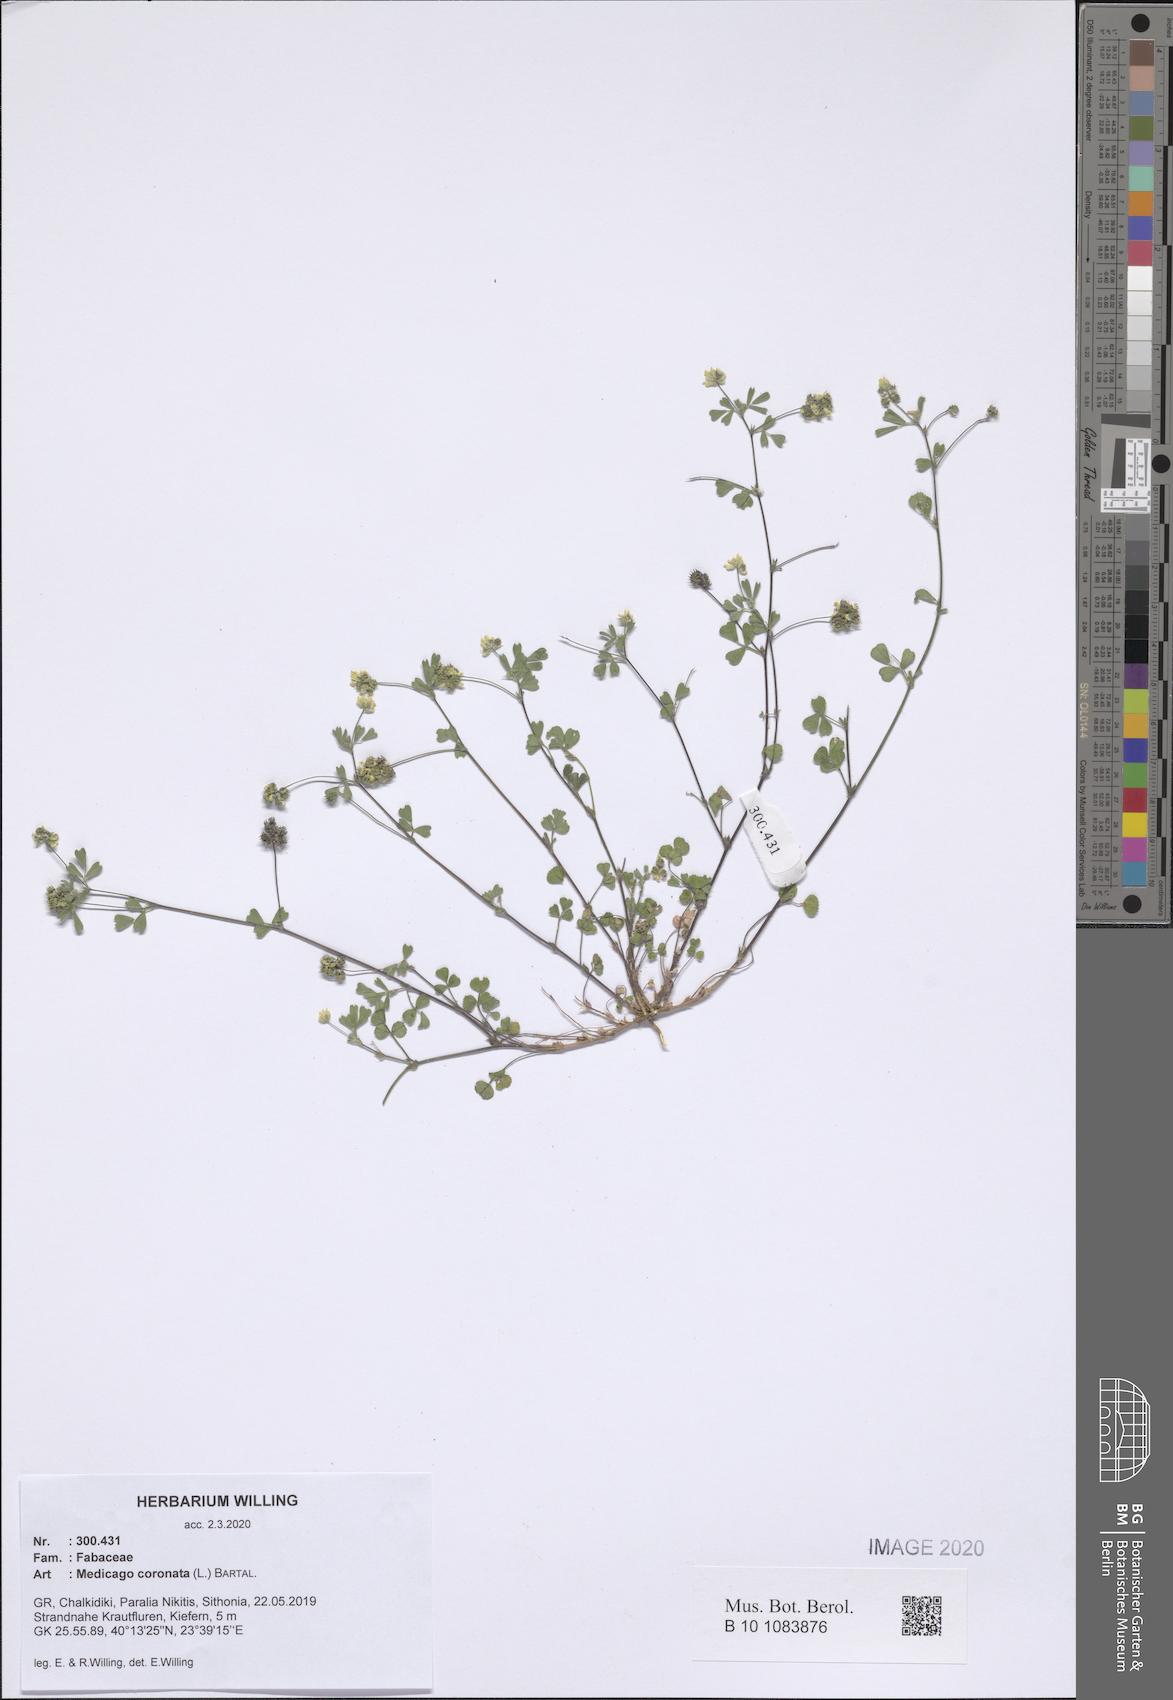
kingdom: Plantae
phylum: Tracheophyta
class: Magnoliopsida
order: Fabales
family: Fabaceae
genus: Medicago
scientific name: Medicago coronata
